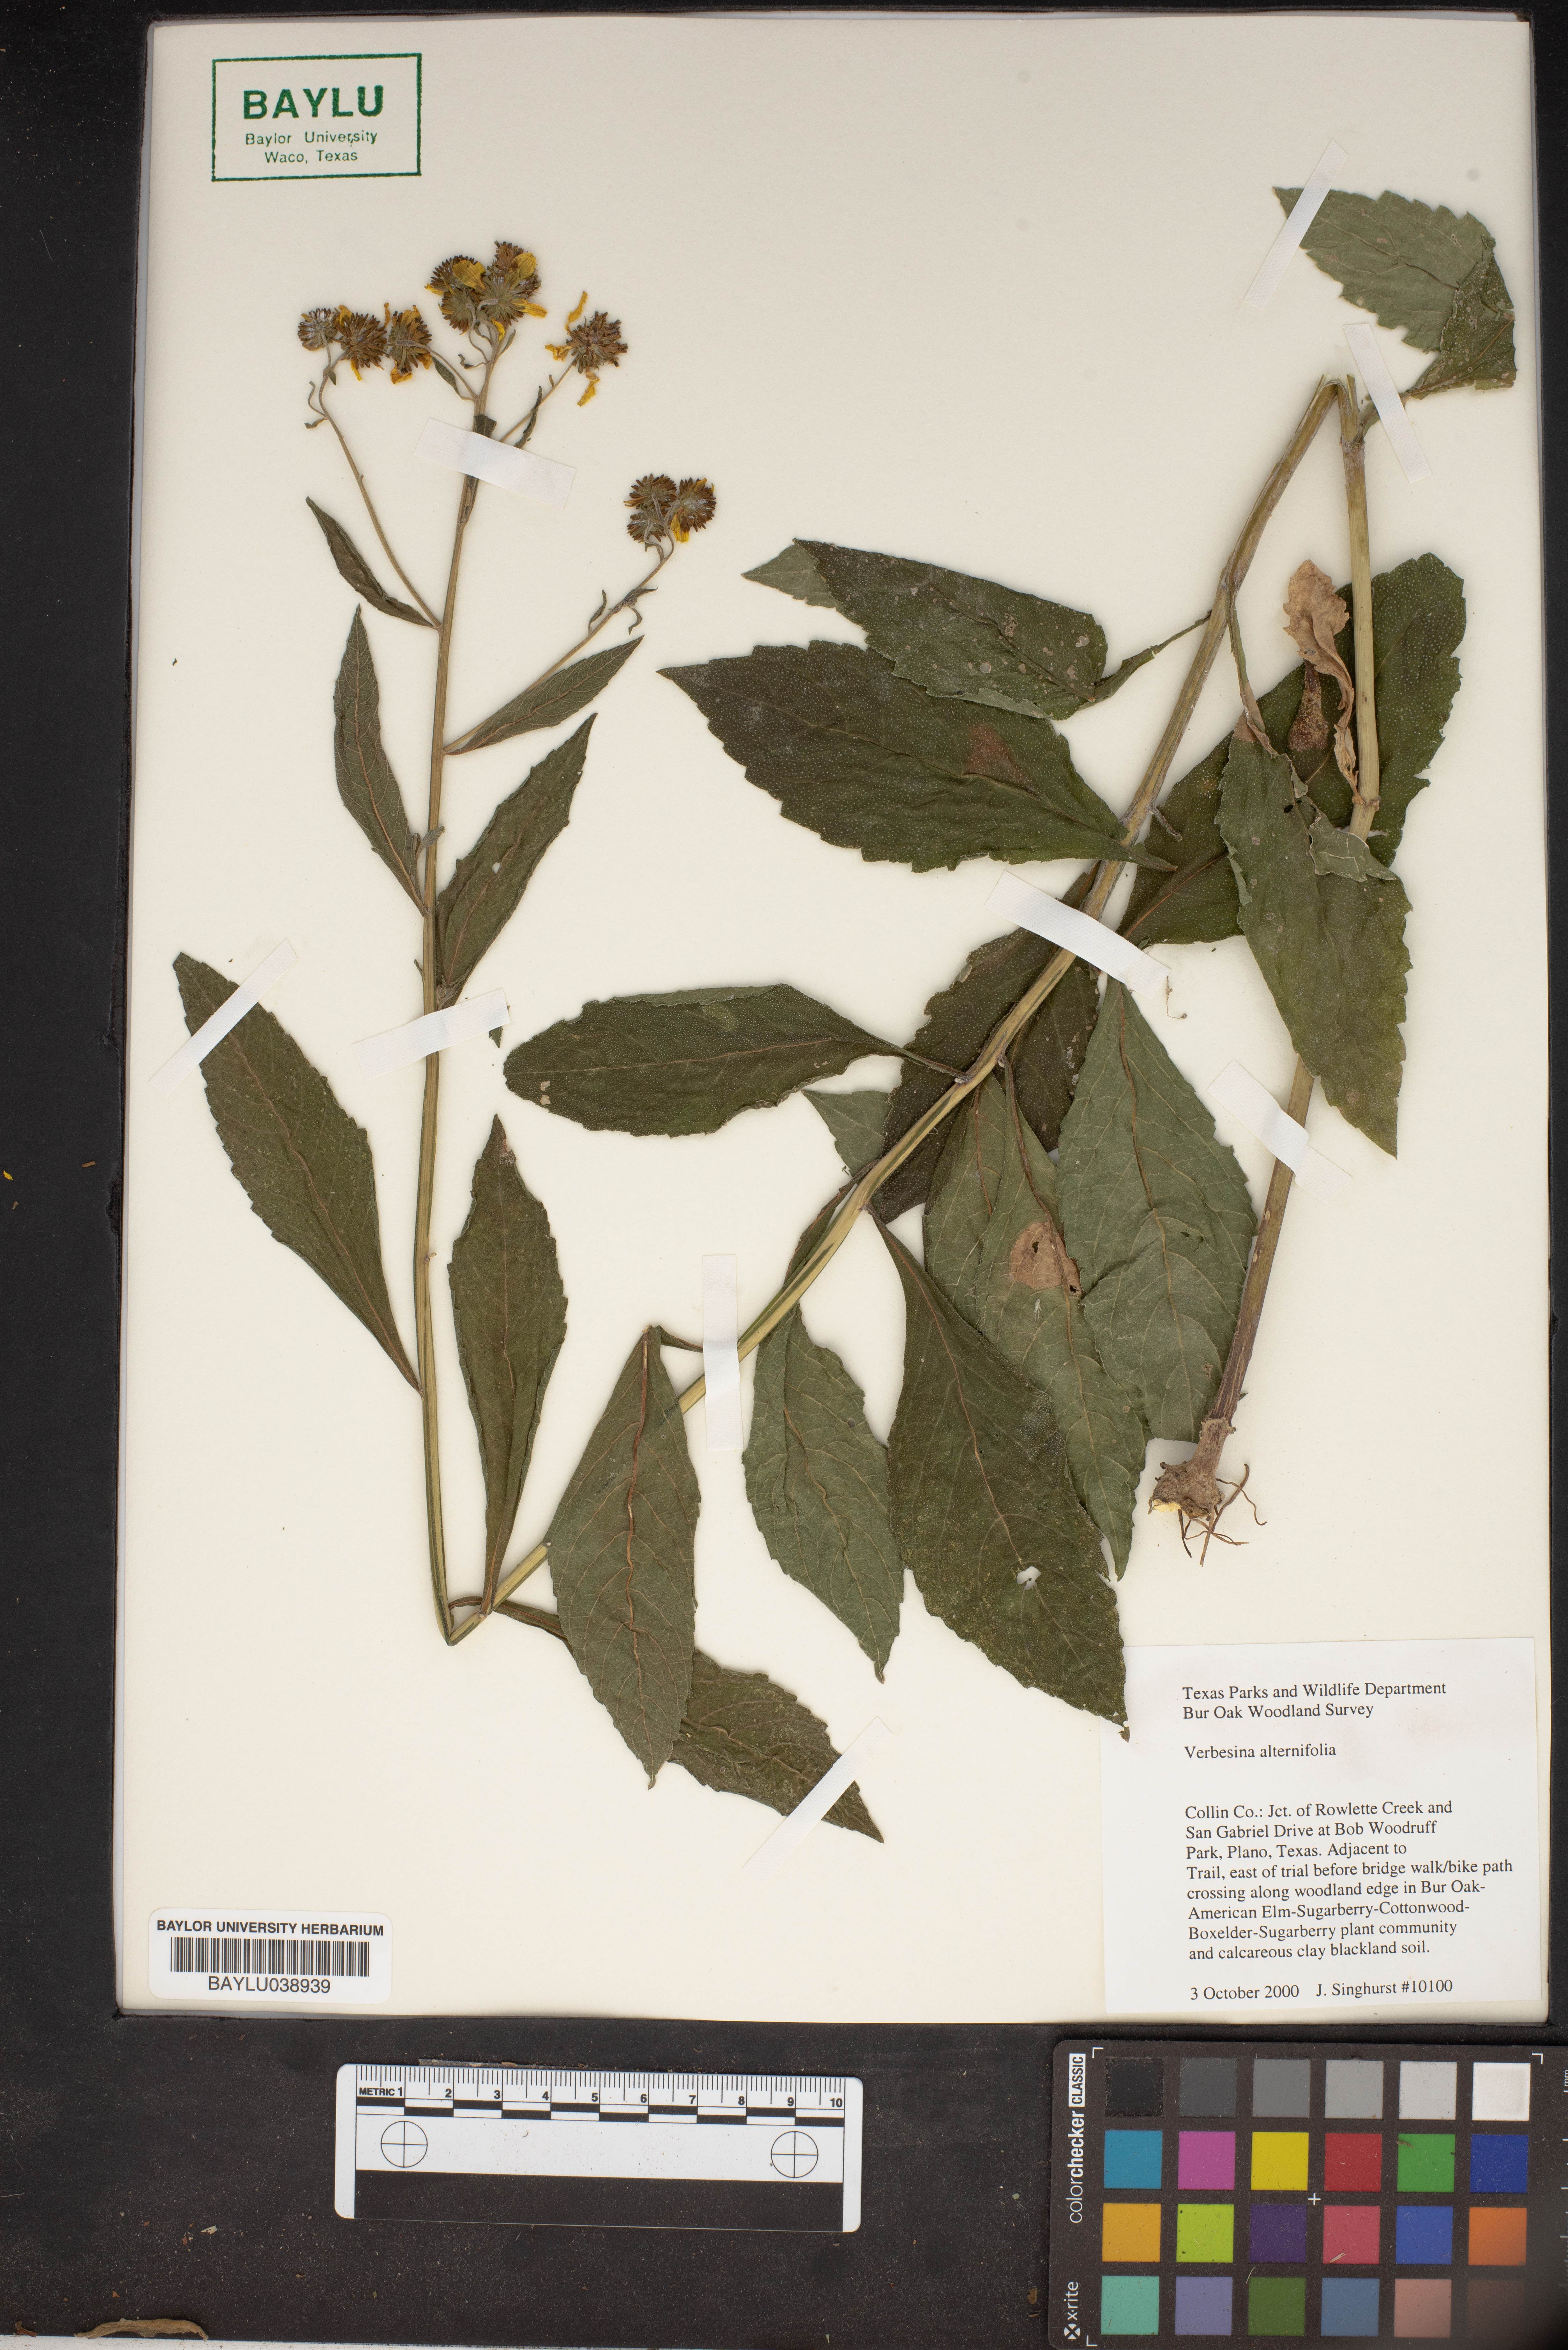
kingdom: Plantae
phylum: Tracheophyta
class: Magnoliopsida
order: Asterales
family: Asteraceae
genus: Verbesina
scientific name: Verbesina alternifolia
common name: Wingstem
